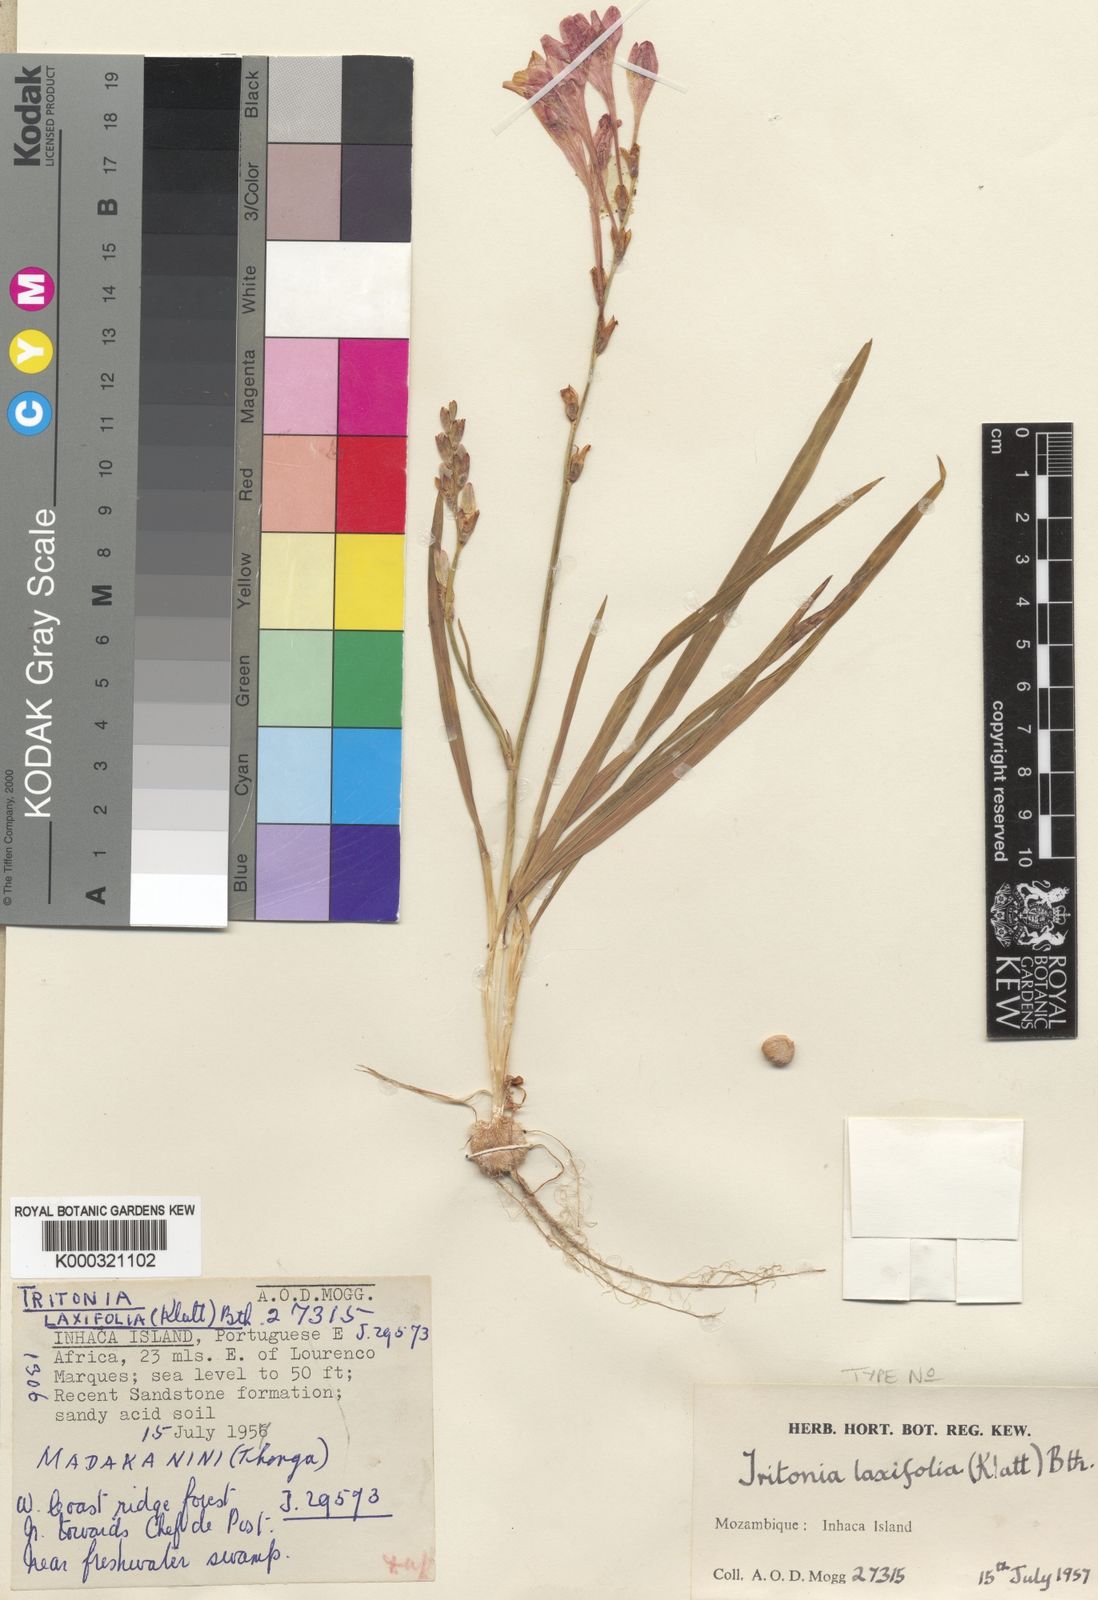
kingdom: Plantae
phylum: Tracheophyta
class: Liliopsida
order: Asparagales
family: Iridaceae
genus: Tritonia
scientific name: Tritonia moggii
